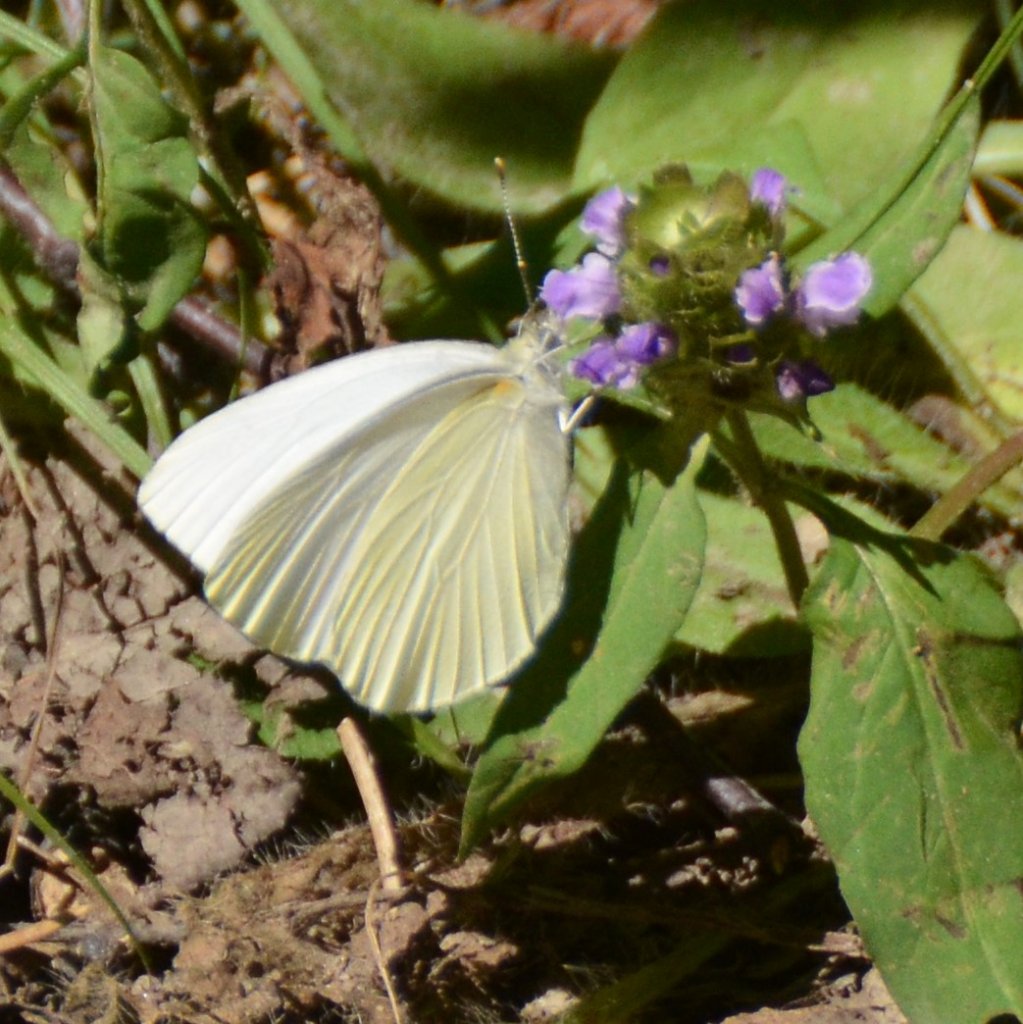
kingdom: Animalia
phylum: Arthropoda
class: Insecta
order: Lepidoptera
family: Pieridae
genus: Pieris
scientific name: Pieris oleracea
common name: Mustard White
